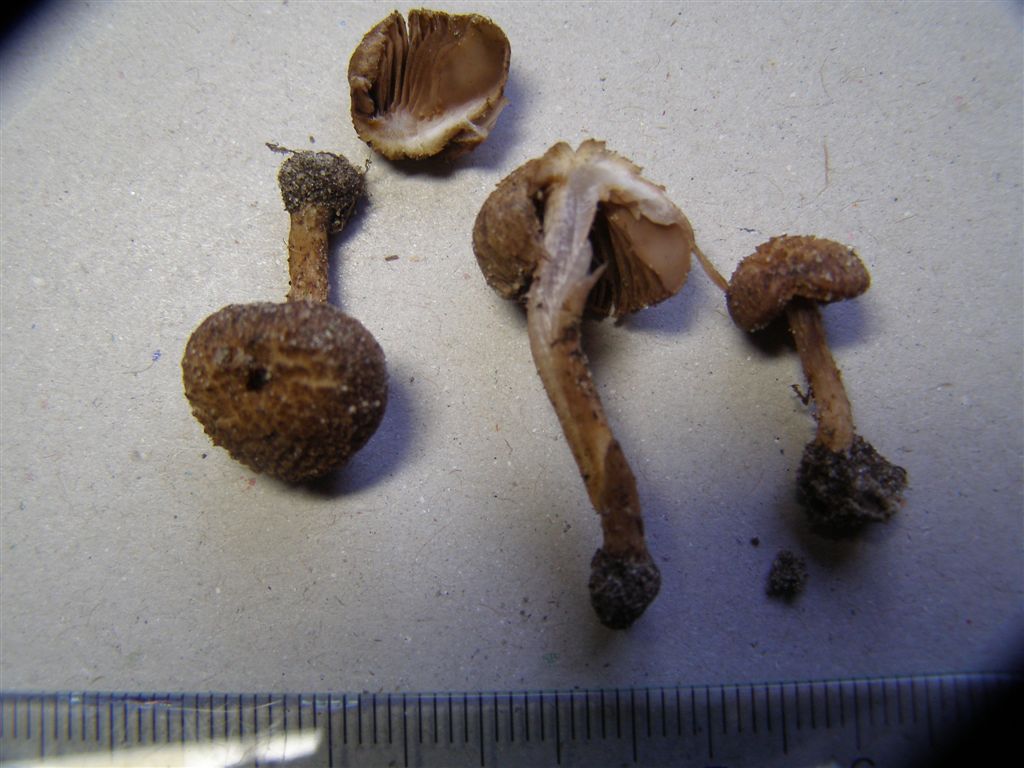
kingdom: Fungi
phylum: Basidiomycota
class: Agaricomycetes
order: Agaricales
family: Inocybaceae
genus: Inocybe
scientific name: Inocybe cincinnata
